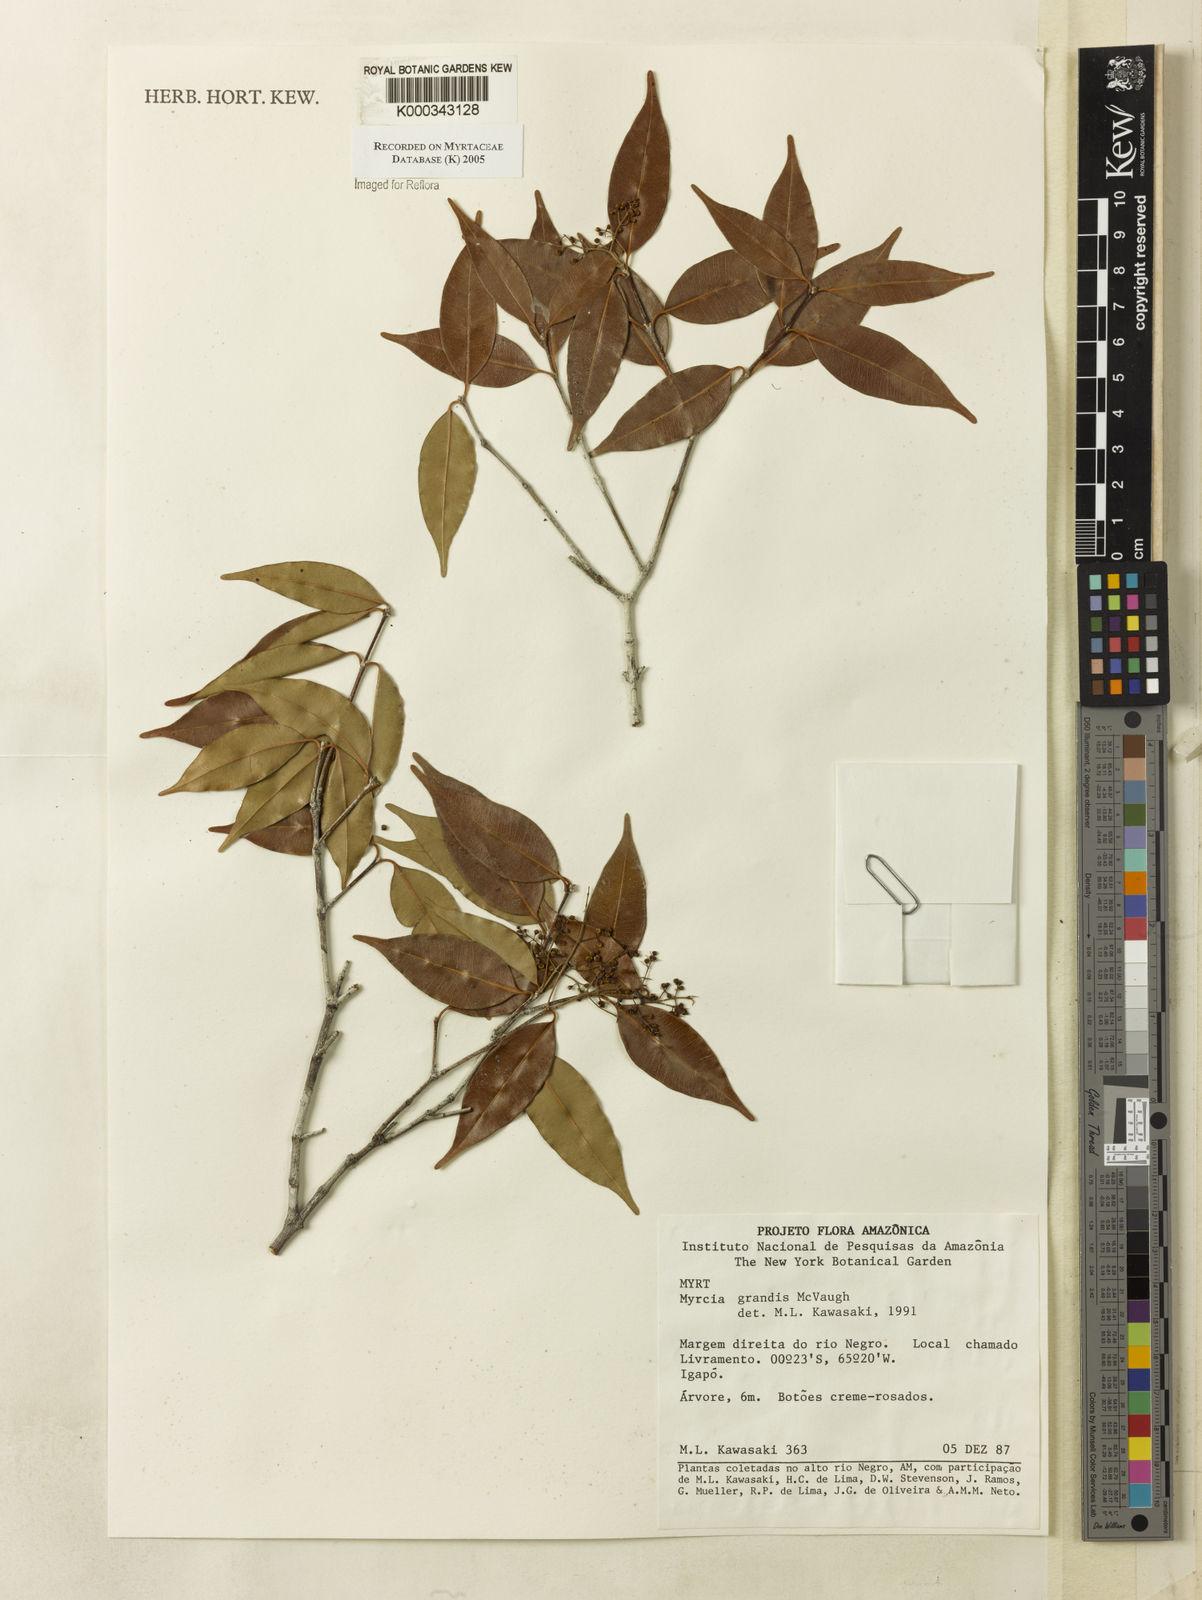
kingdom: Plantae
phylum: Tracheophyta
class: Magnoliopsida
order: Myrtales
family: Myrtaceae
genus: Myrcia
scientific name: Myrcia grandis
